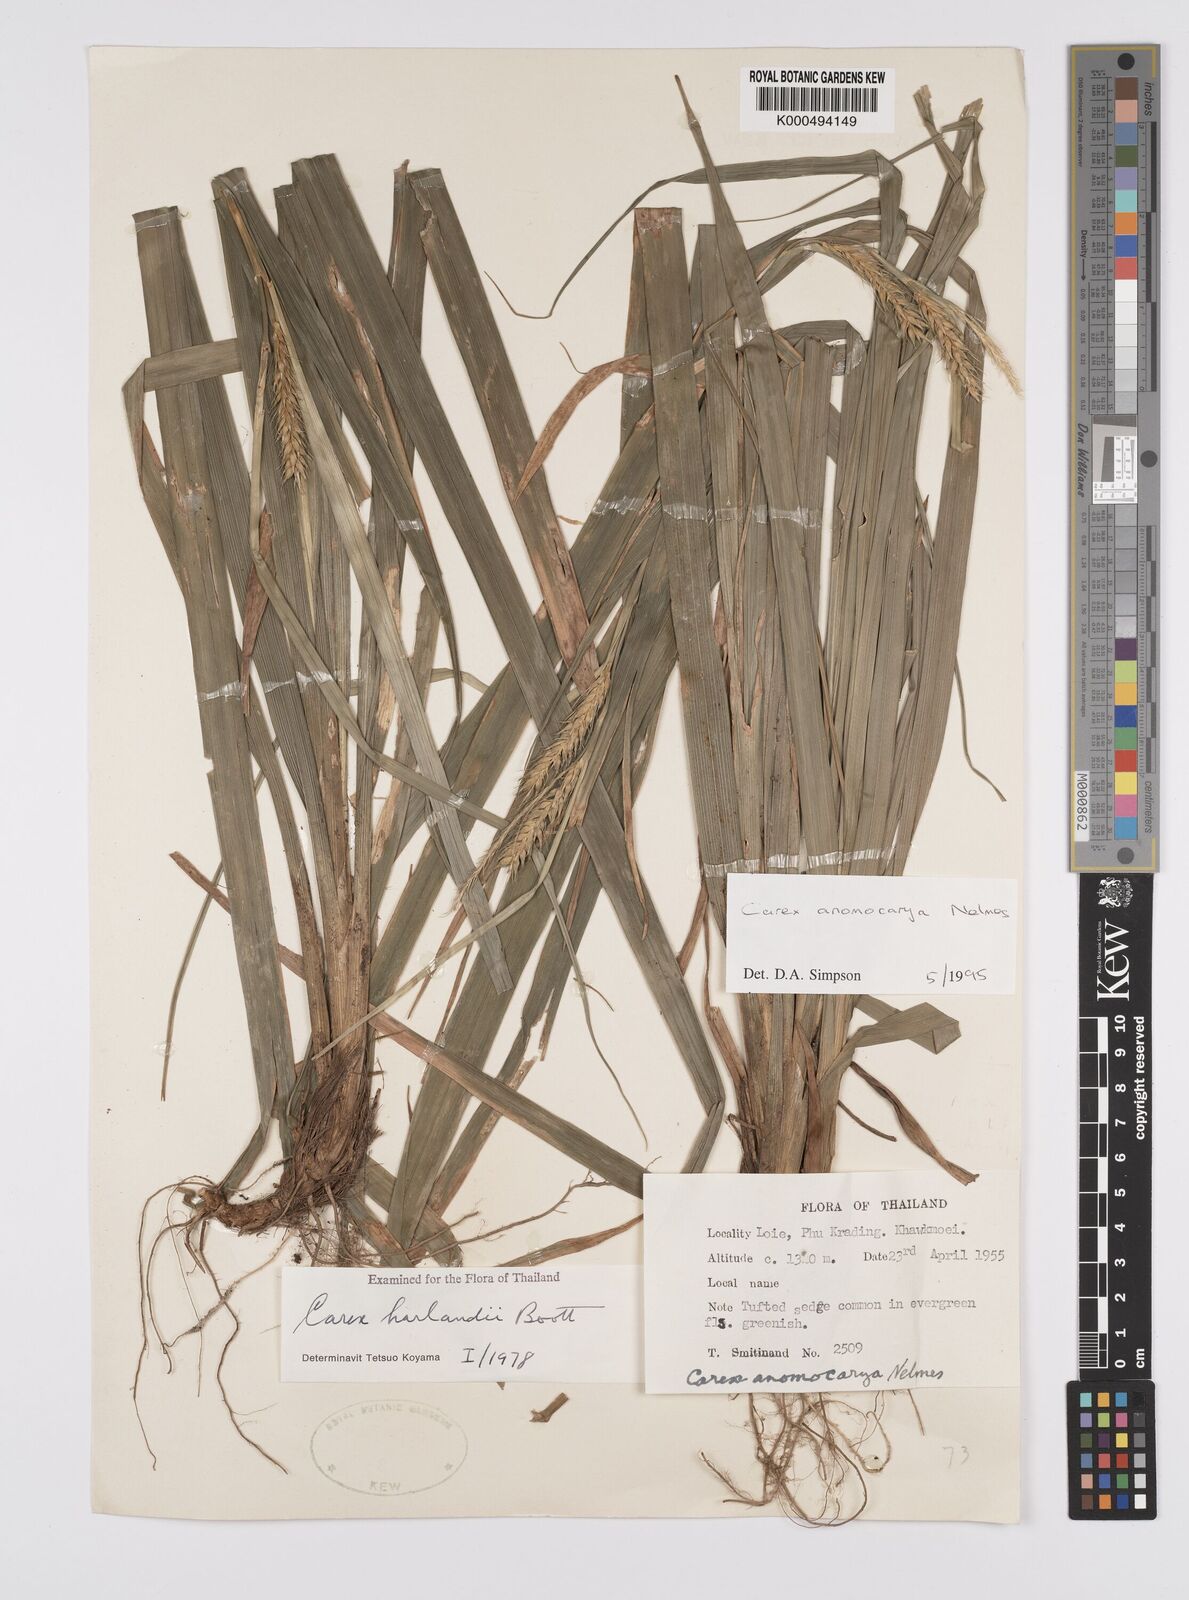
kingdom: Plantae
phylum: Tracheophyta
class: Liliopsida
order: Poales
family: Cyperaceae
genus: Carex
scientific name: Carex harlandii
